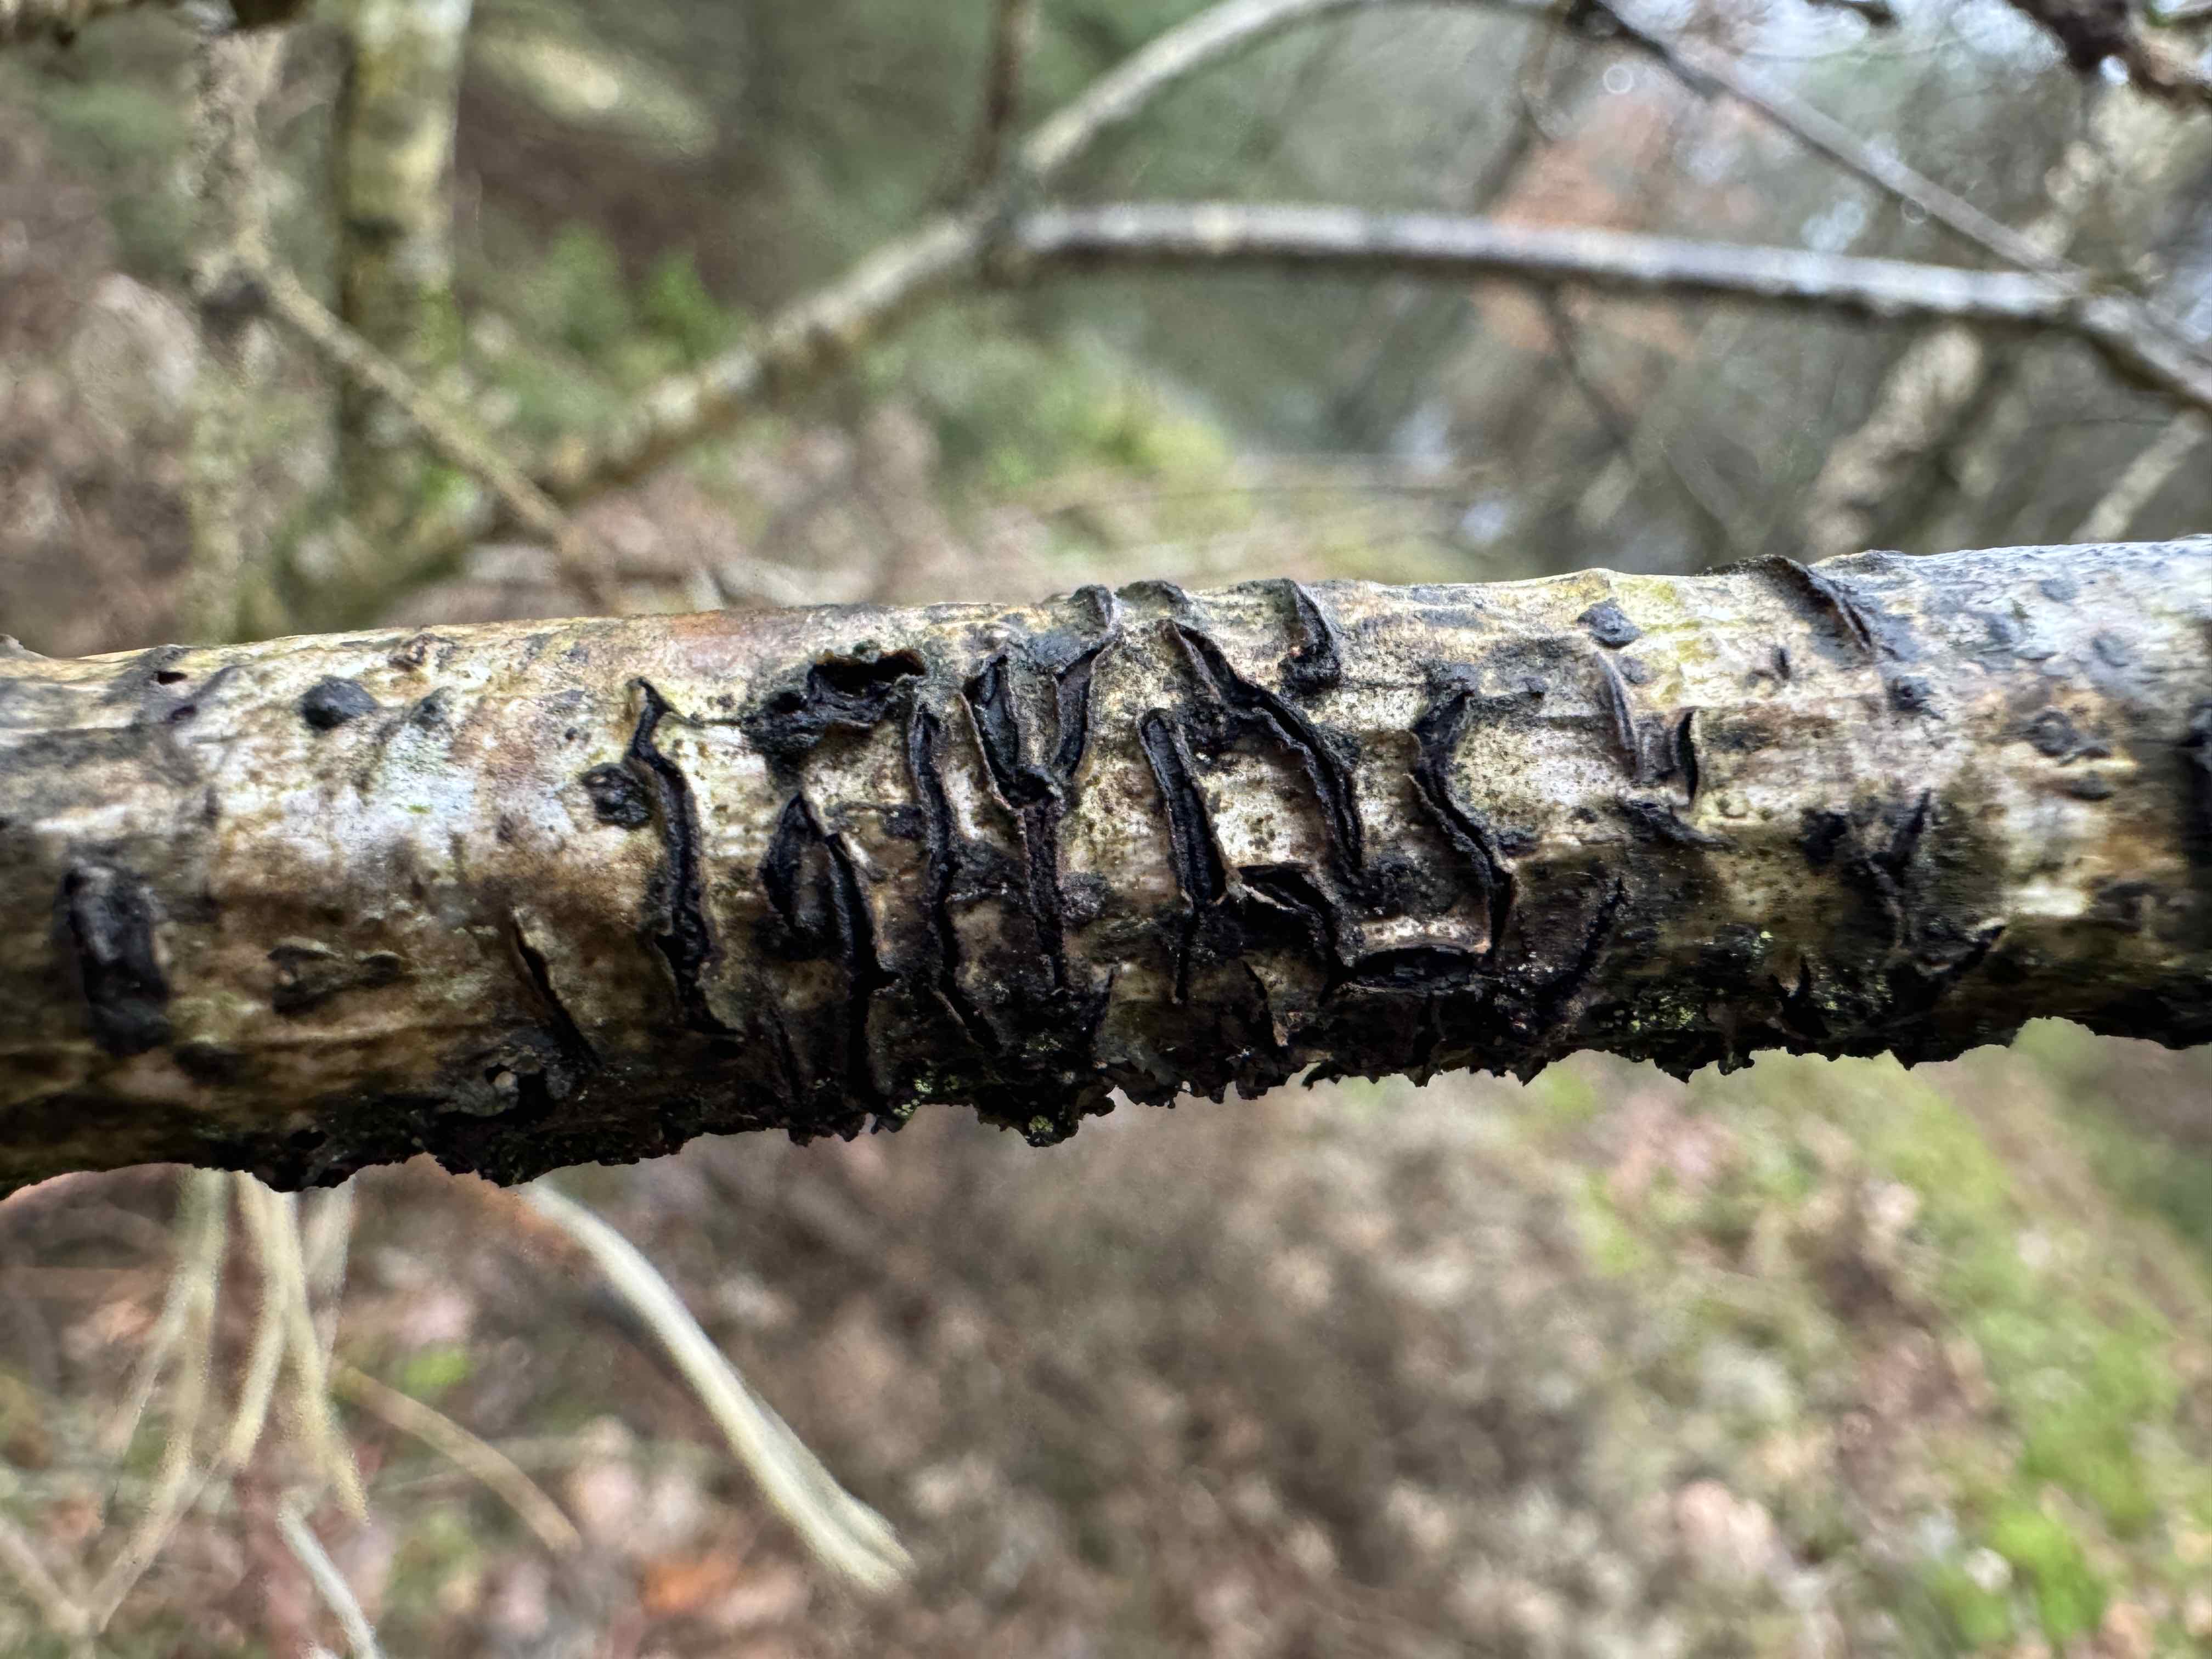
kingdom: Fungi
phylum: Ascomycota
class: Leotiomycetes
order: Rhytismatales
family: Rhytismataceae
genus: Colpoma
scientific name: Colpoma quercinum
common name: ege-sprækkeskive
